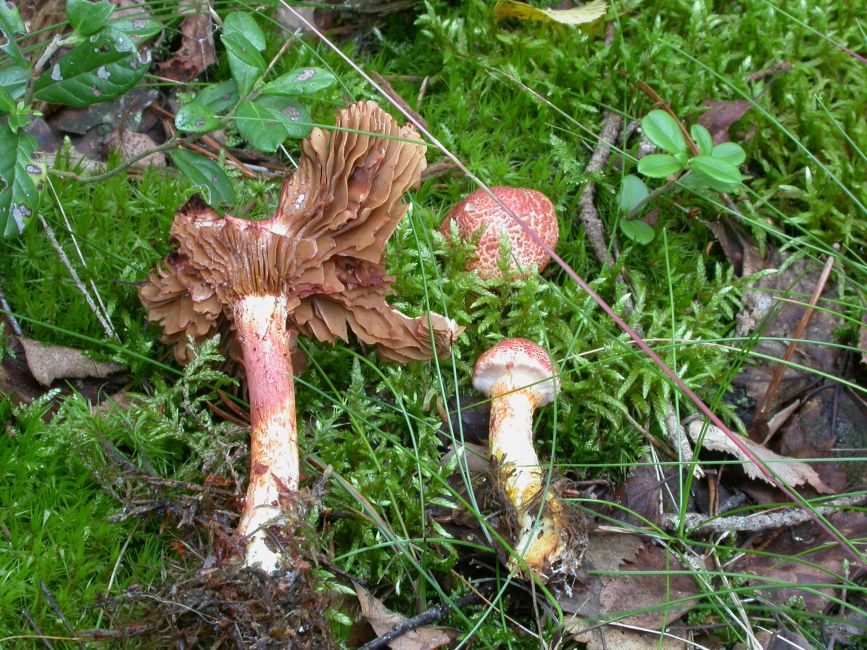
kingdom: Fungi
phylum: Basidiomycota
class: Agaricomycetes
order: Agaricales
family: Cortinariaceae
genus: Cortinarius
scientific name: Cortinarius bolaris
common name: cinnoberskællet slørhat
